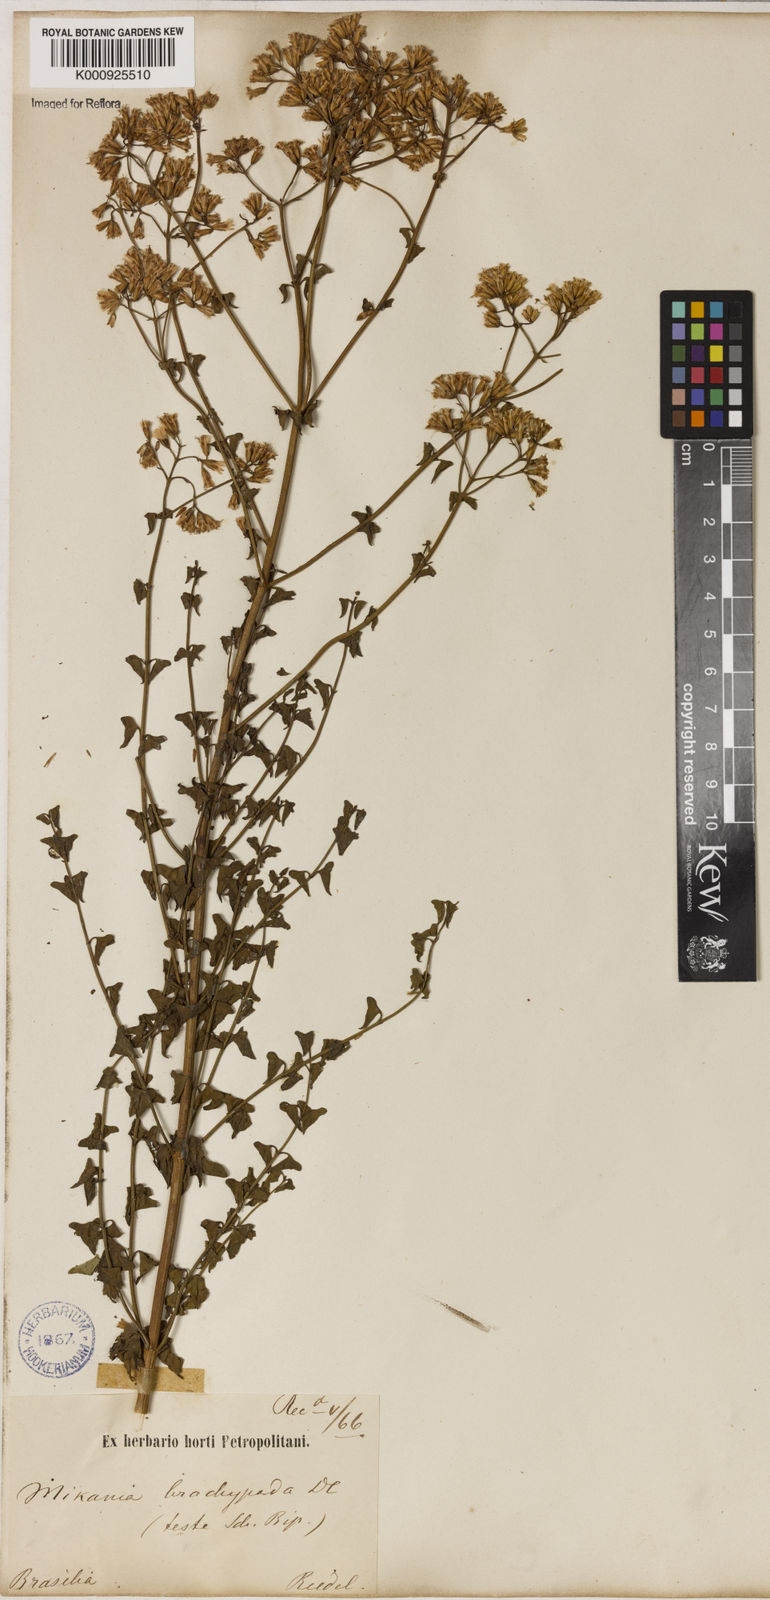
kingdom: Plantae
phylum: Tracheophyta
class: Magnoliopsida
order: Asterales
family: Asteraceae
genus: Mikania
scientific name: Mikania officinalis
